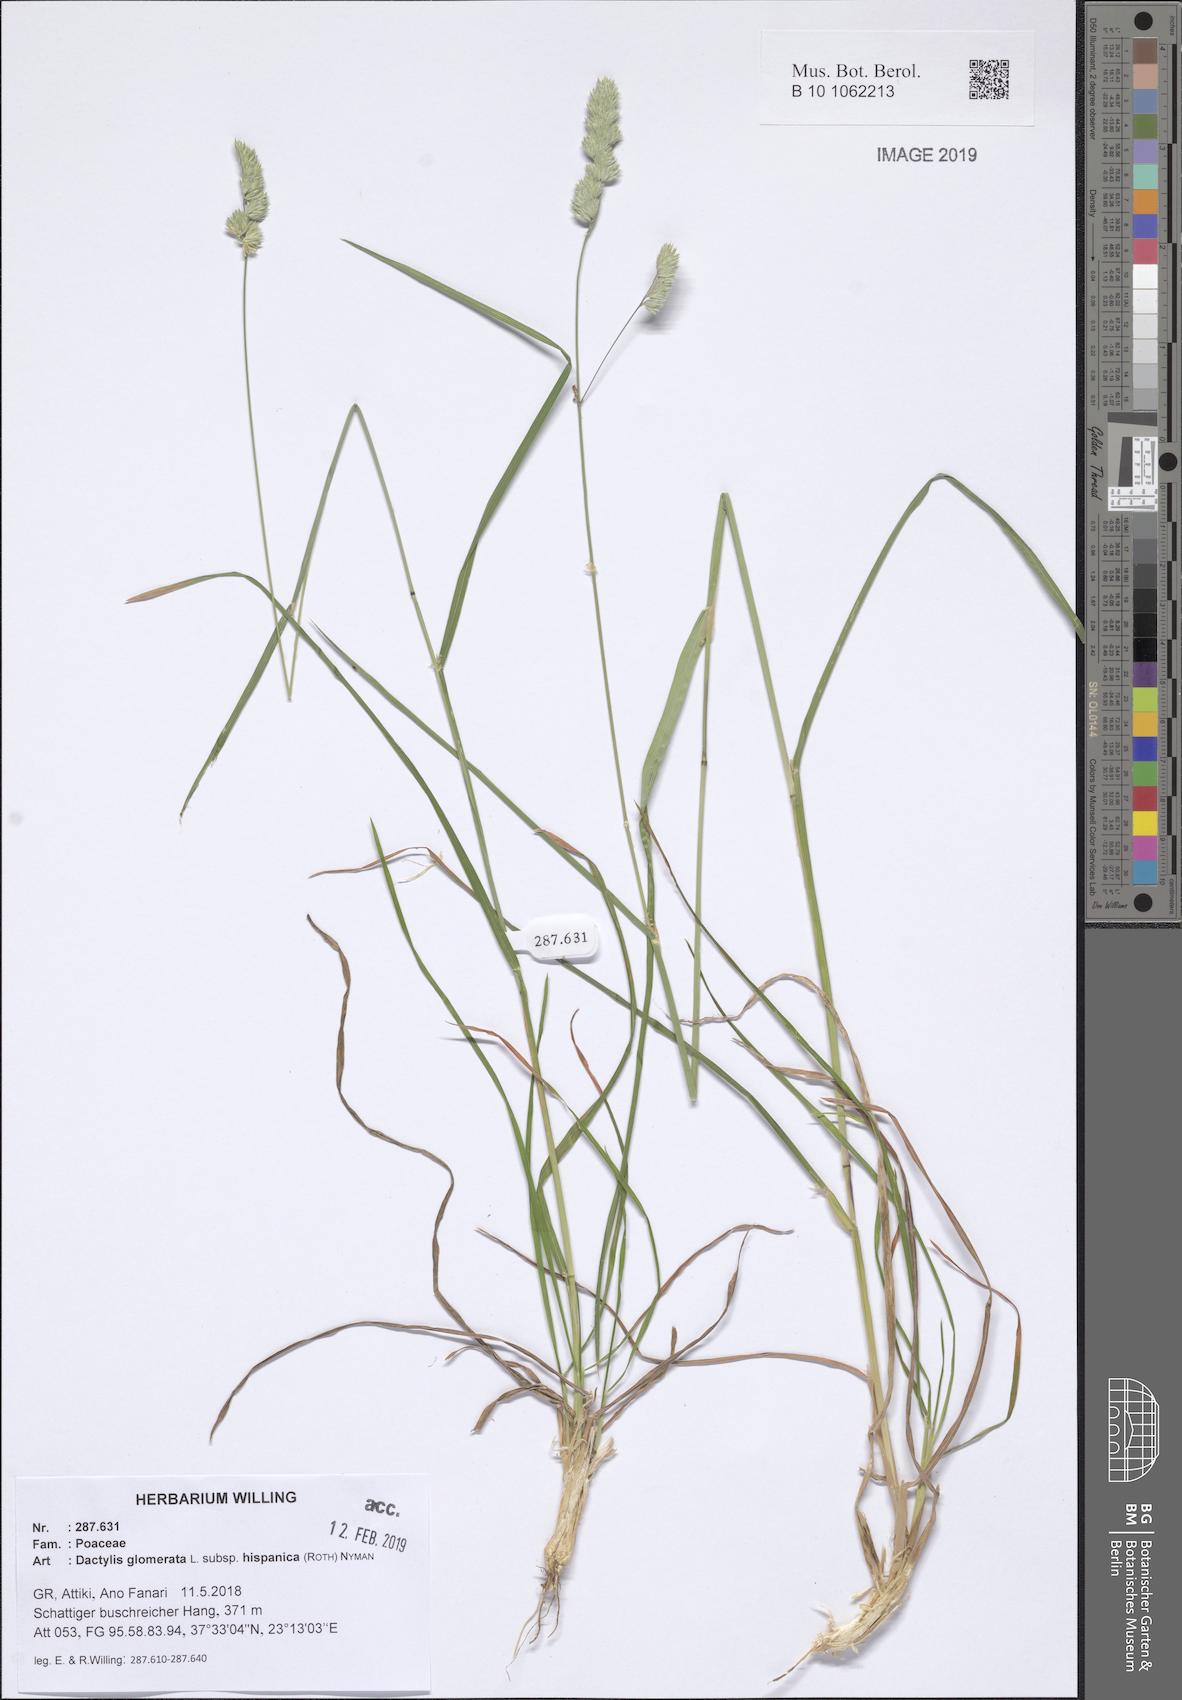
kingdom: Plantae
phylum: Tracheophyta
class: Liliopsida
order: Poales
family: Poaceae
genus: Dactylis
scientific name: Dactylis glomerata
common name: Orchardgrass
